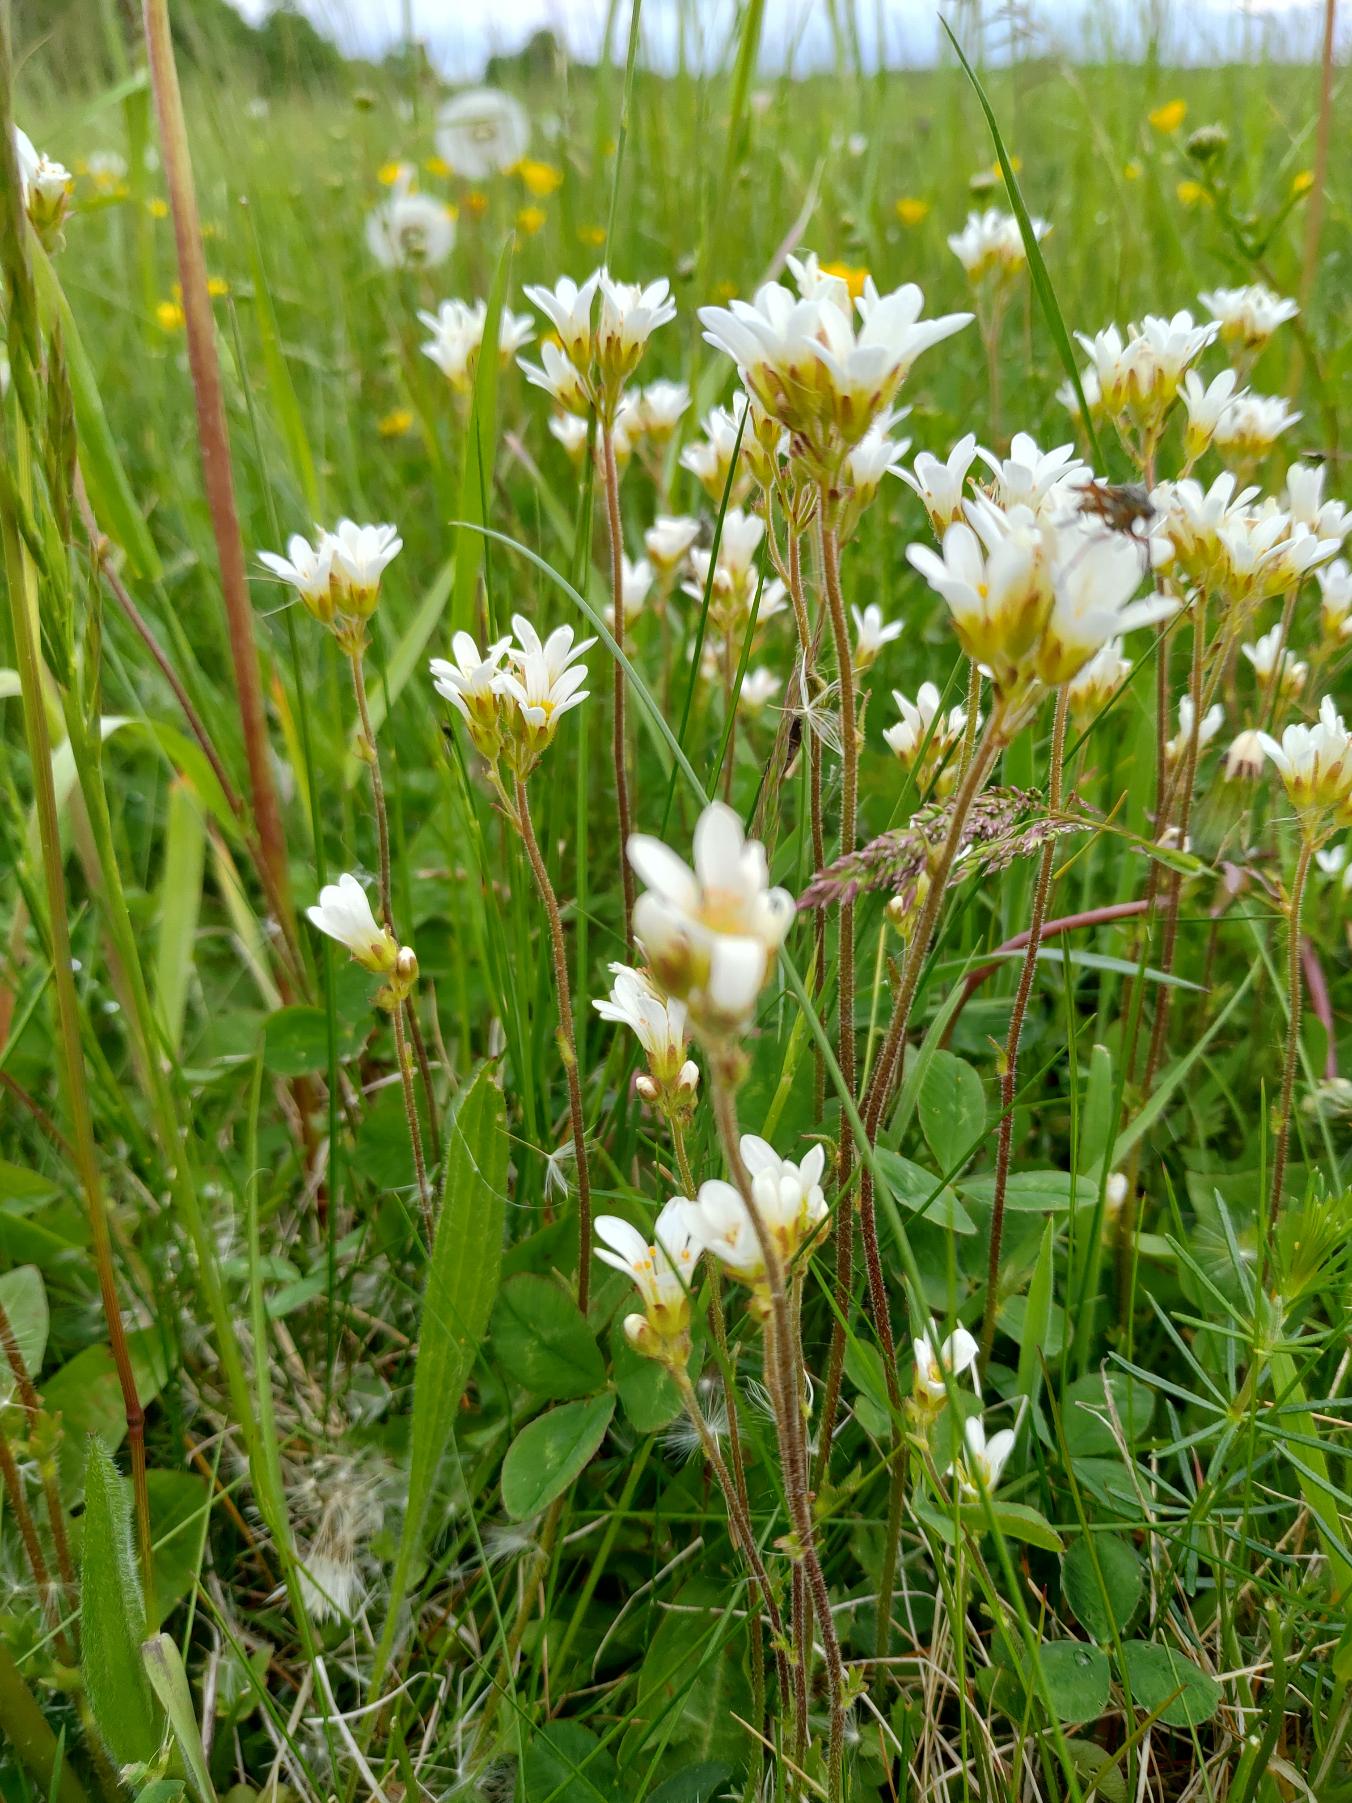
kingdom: Plantae
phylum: Tracheophyta
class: Magnoliopsida
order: Saxifragales
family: Saxifragaceae
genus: Saxifraga
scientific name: Saxifraga granulata
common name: Kornet stenbræk
